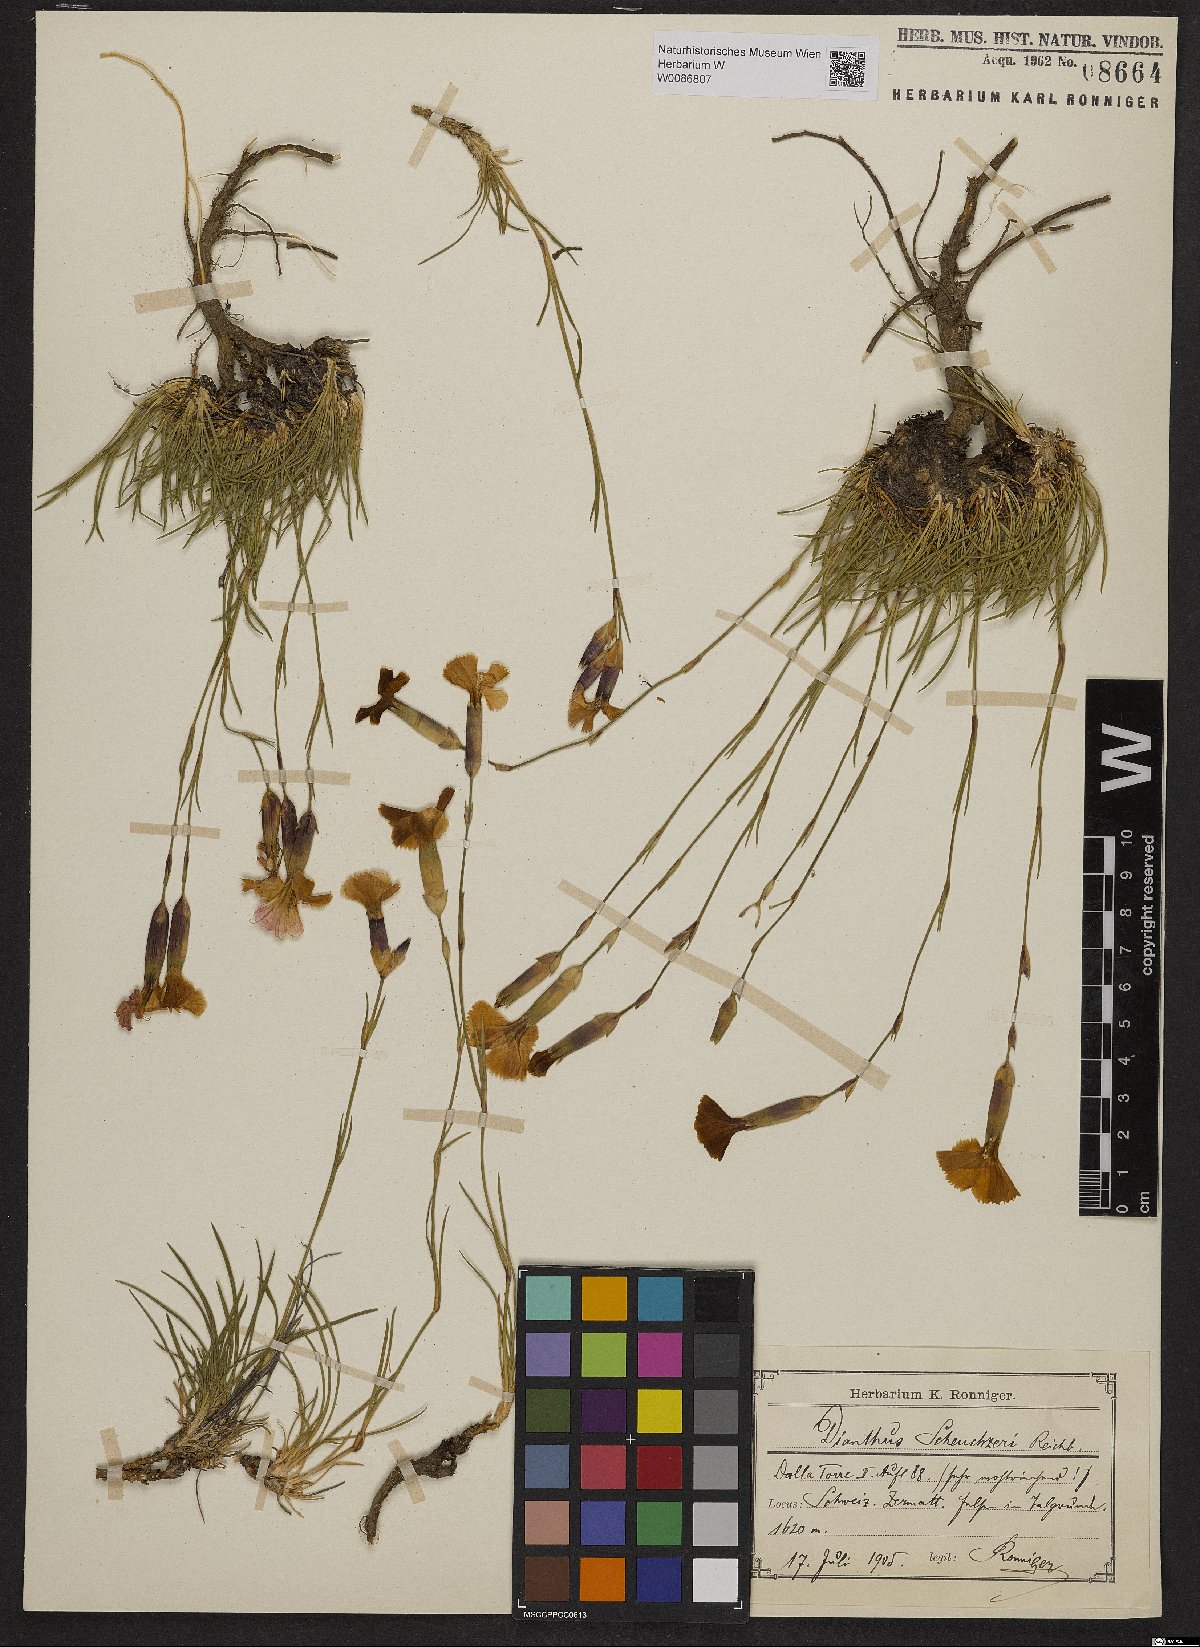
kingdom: Plantae
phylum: Tracheophyta
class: Magnoliopsida
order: Caryophyllales
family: Caryophyllaceae
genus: Dianthus
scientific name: Dianthus sylvestris
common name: Wood pink
